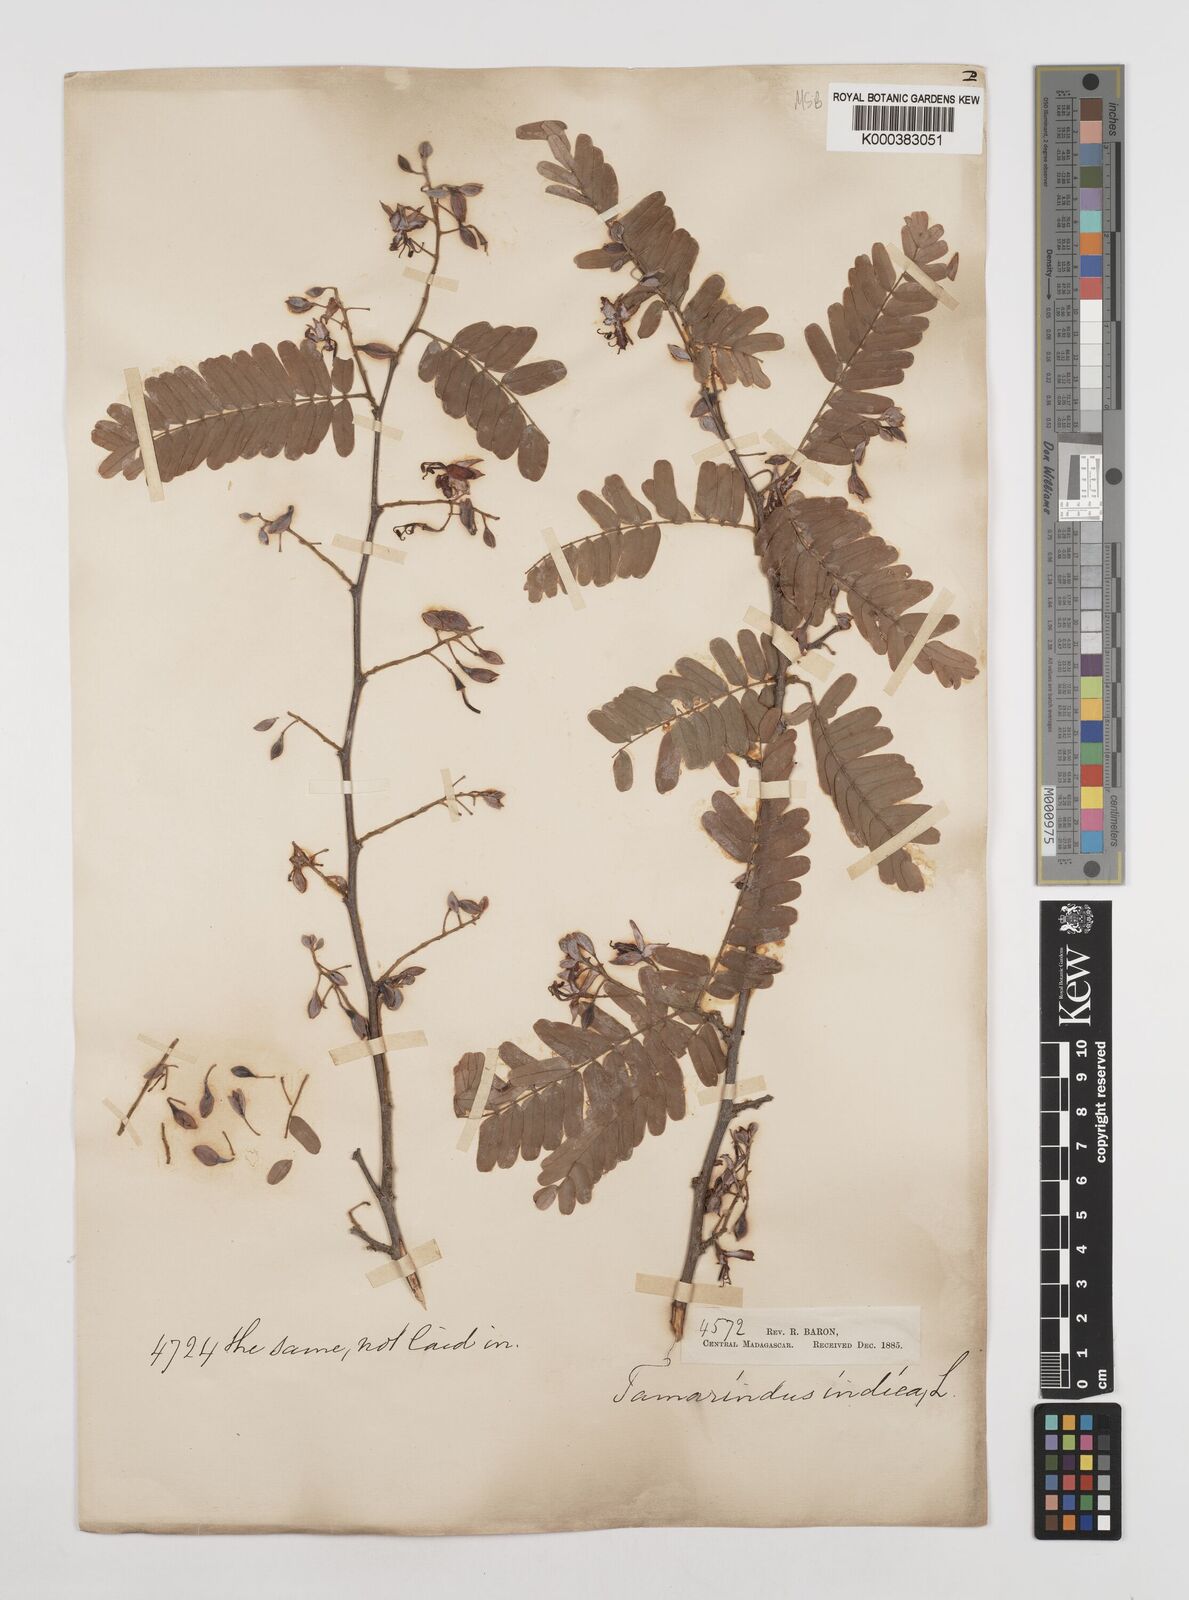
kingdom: Plantae
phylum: Tracheophyta
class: Magnoliopsida
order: Fabales
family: Fabaceae
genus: Tamarindus
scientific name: Tamarindus indica
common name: Tamarind
